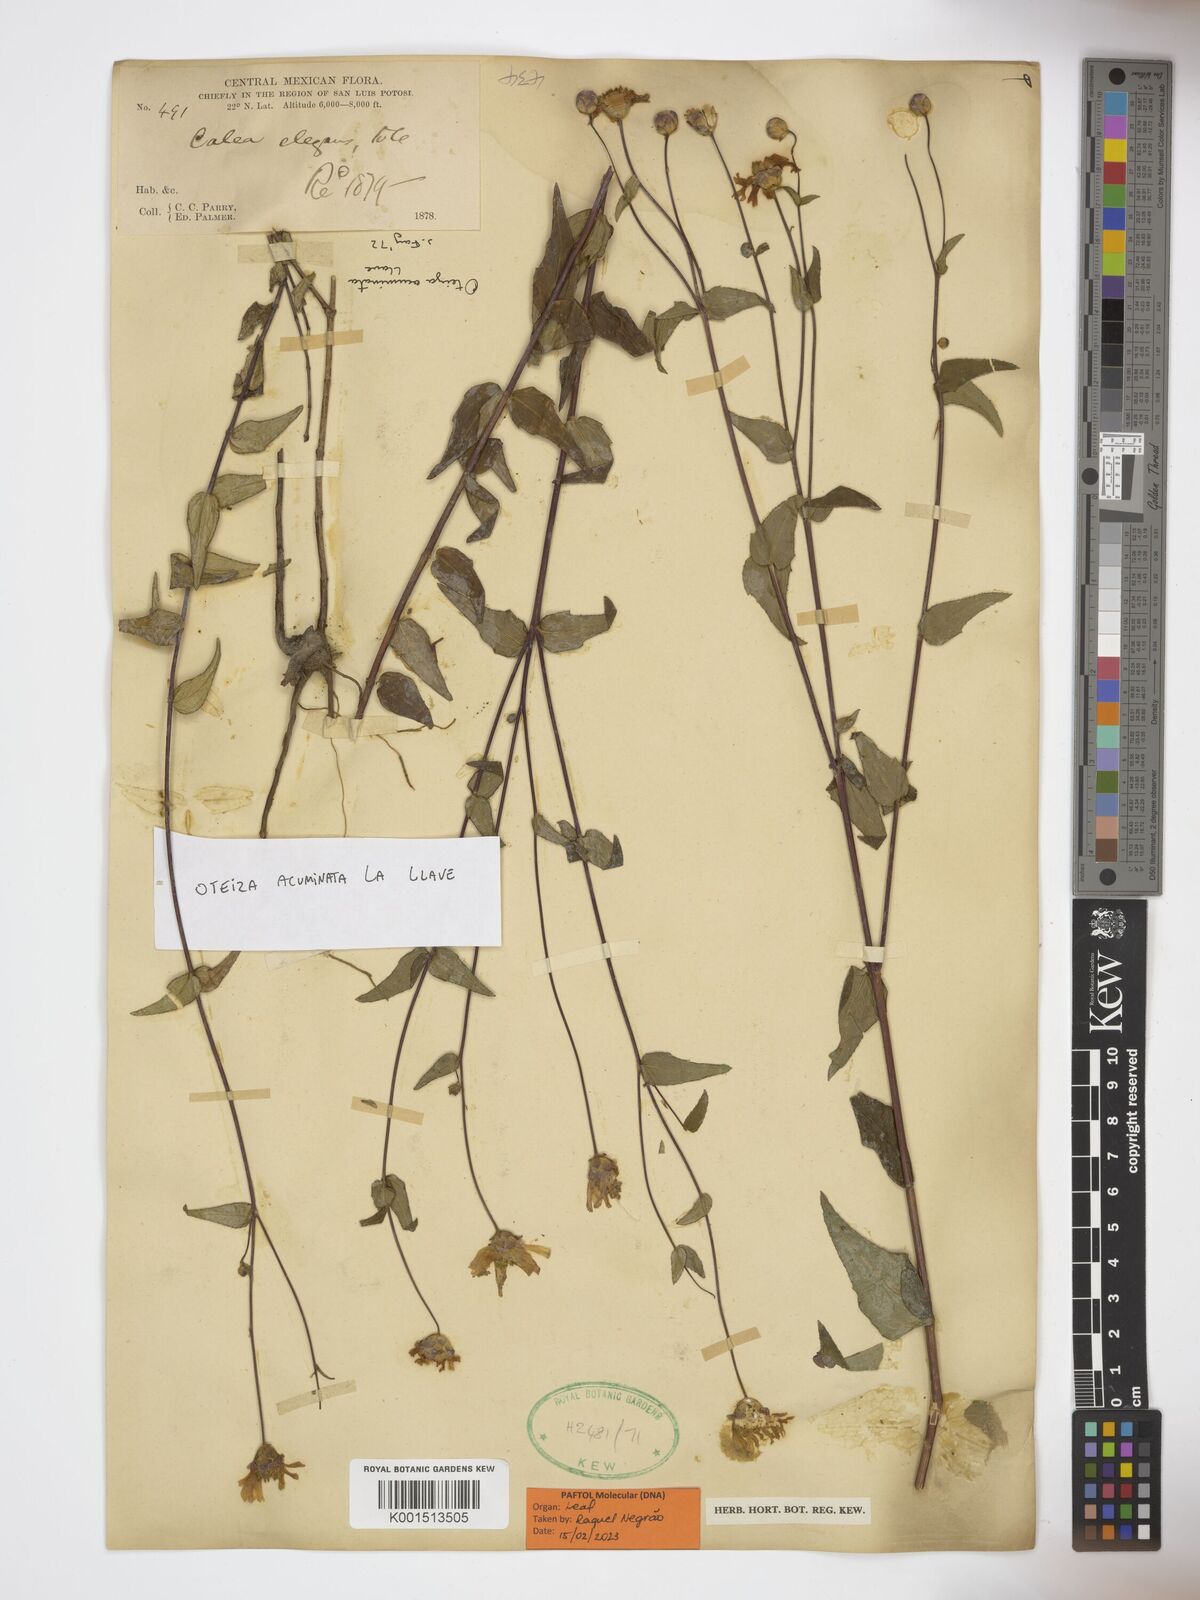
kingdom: Plantae
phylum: Tracheophyta
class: Magnoliopsida
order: Asterales
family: Asteraceae
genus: Oteiza
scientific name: Oteiza acuminata
